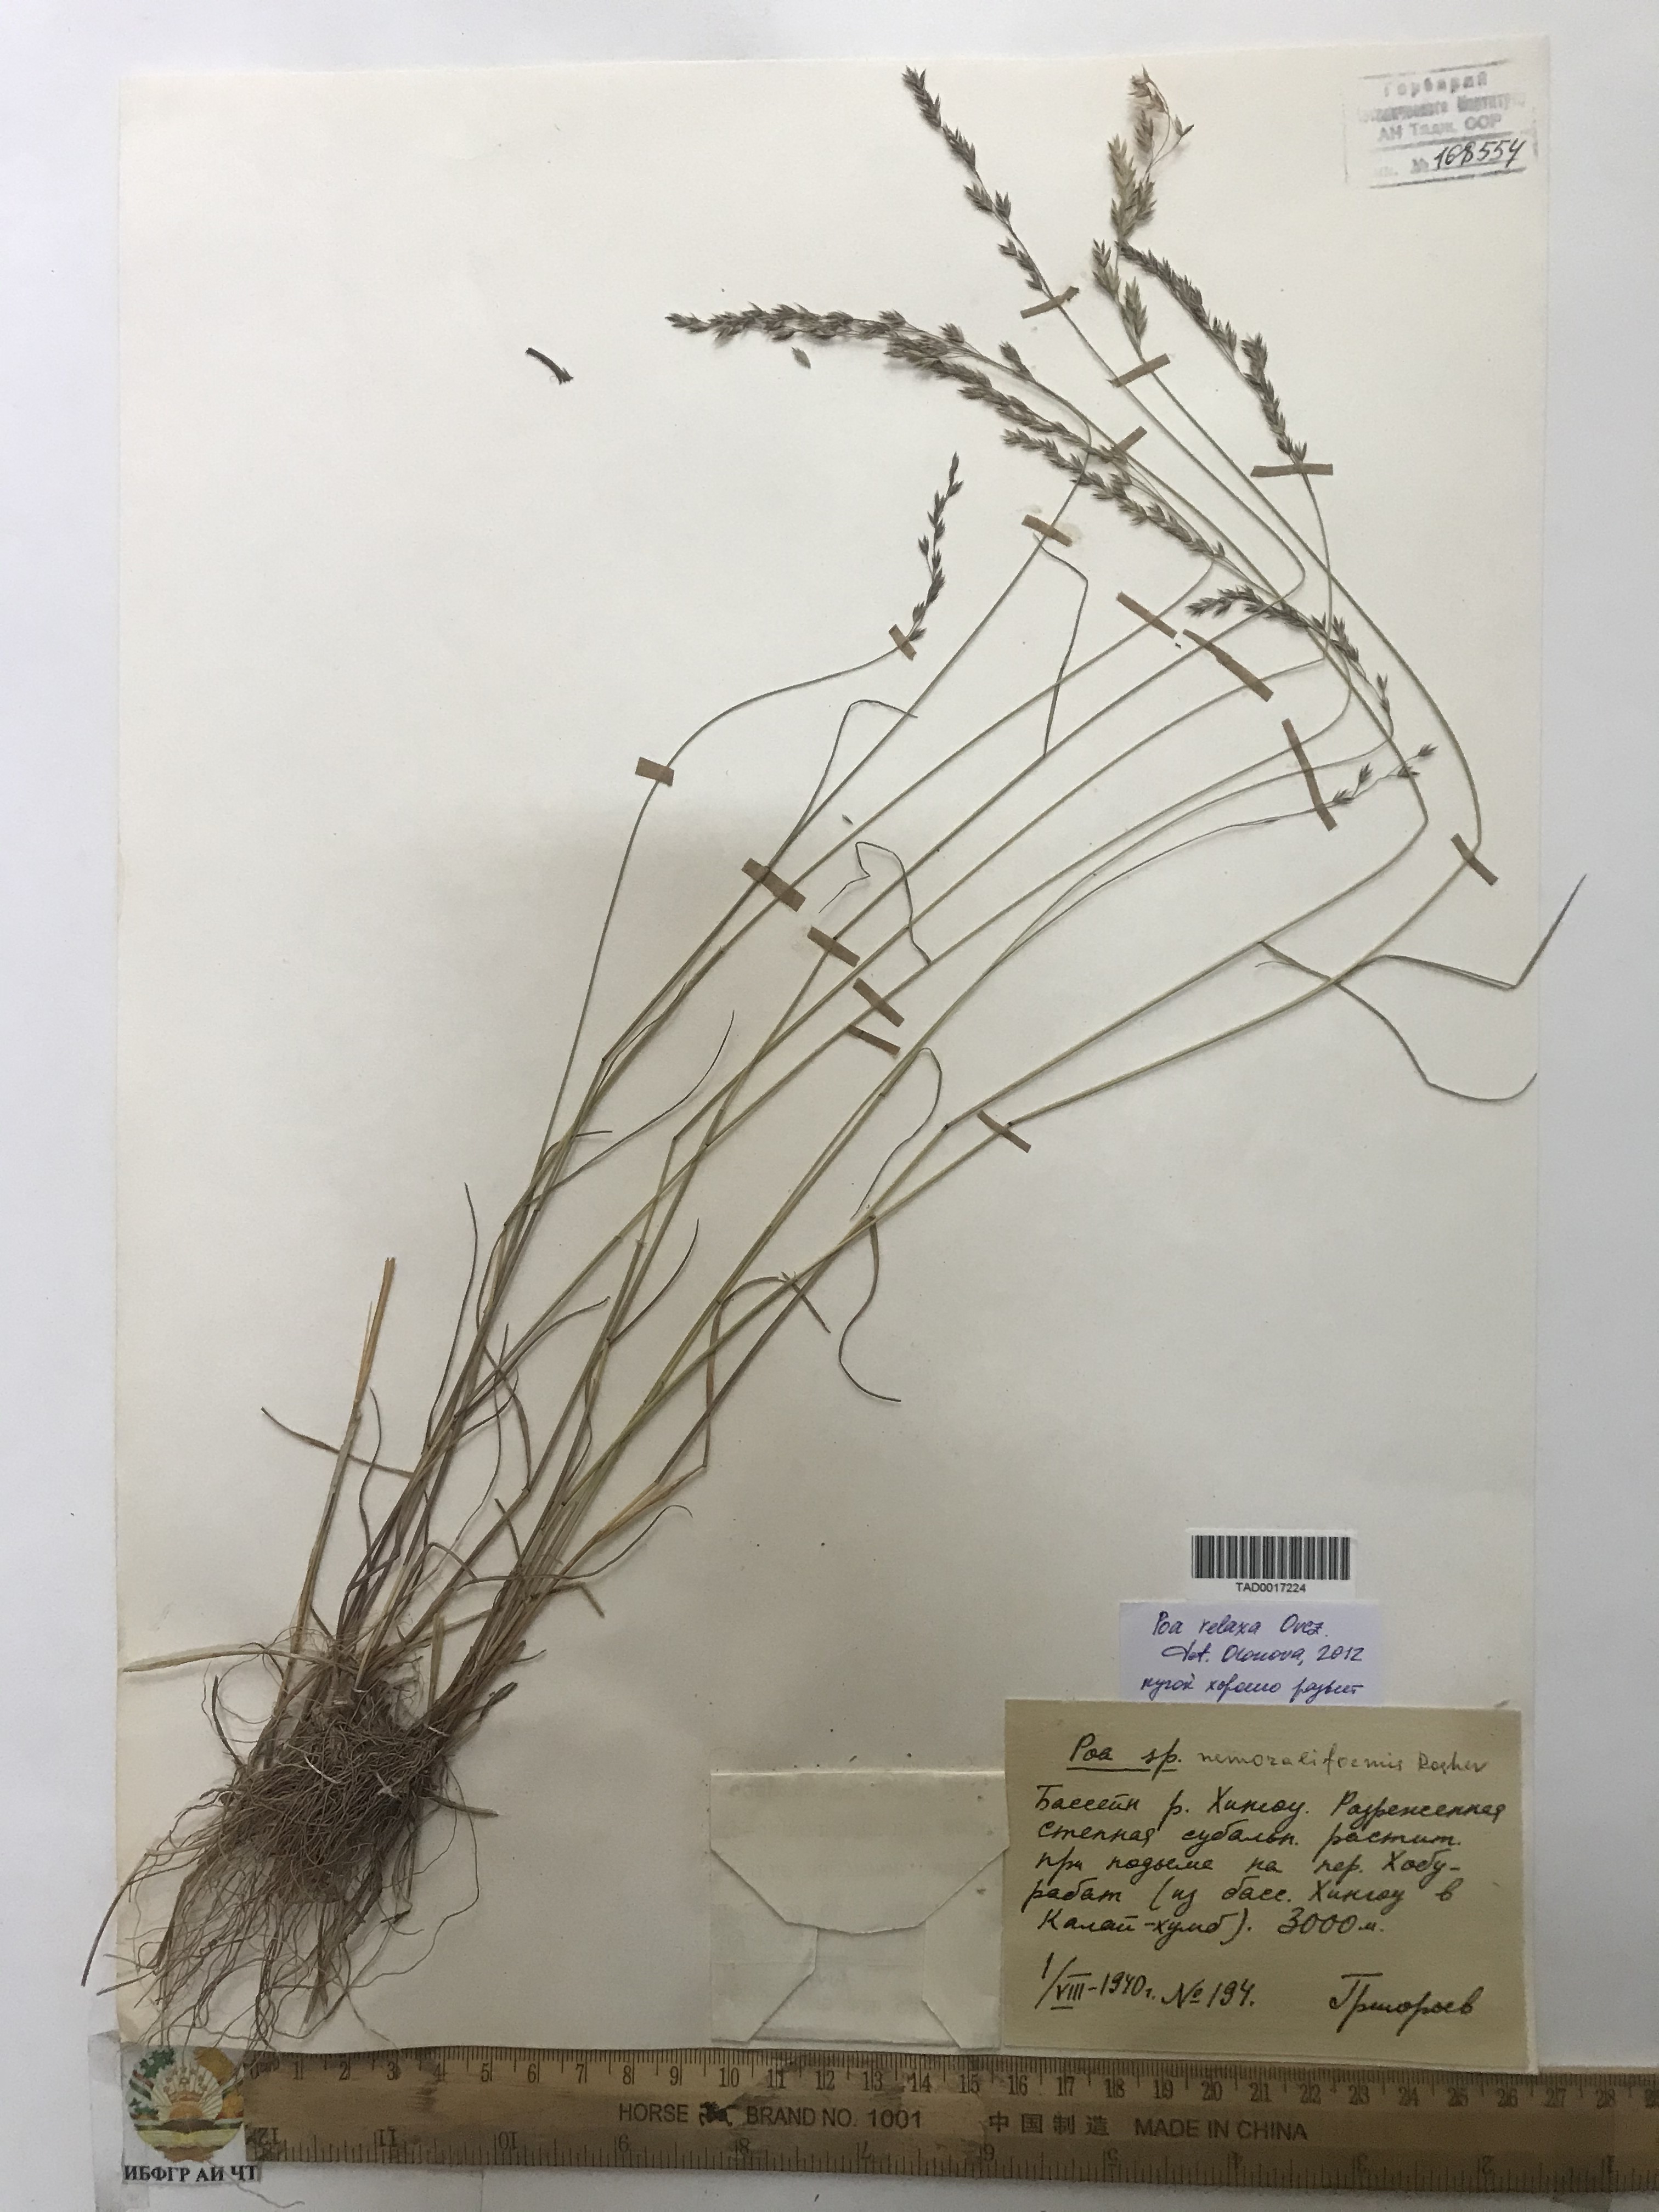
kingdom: Plantae
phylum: Tracheophyta
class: Liliopsida
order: Poales
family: Poaceae
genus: Poa
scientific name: Poa versicolor
